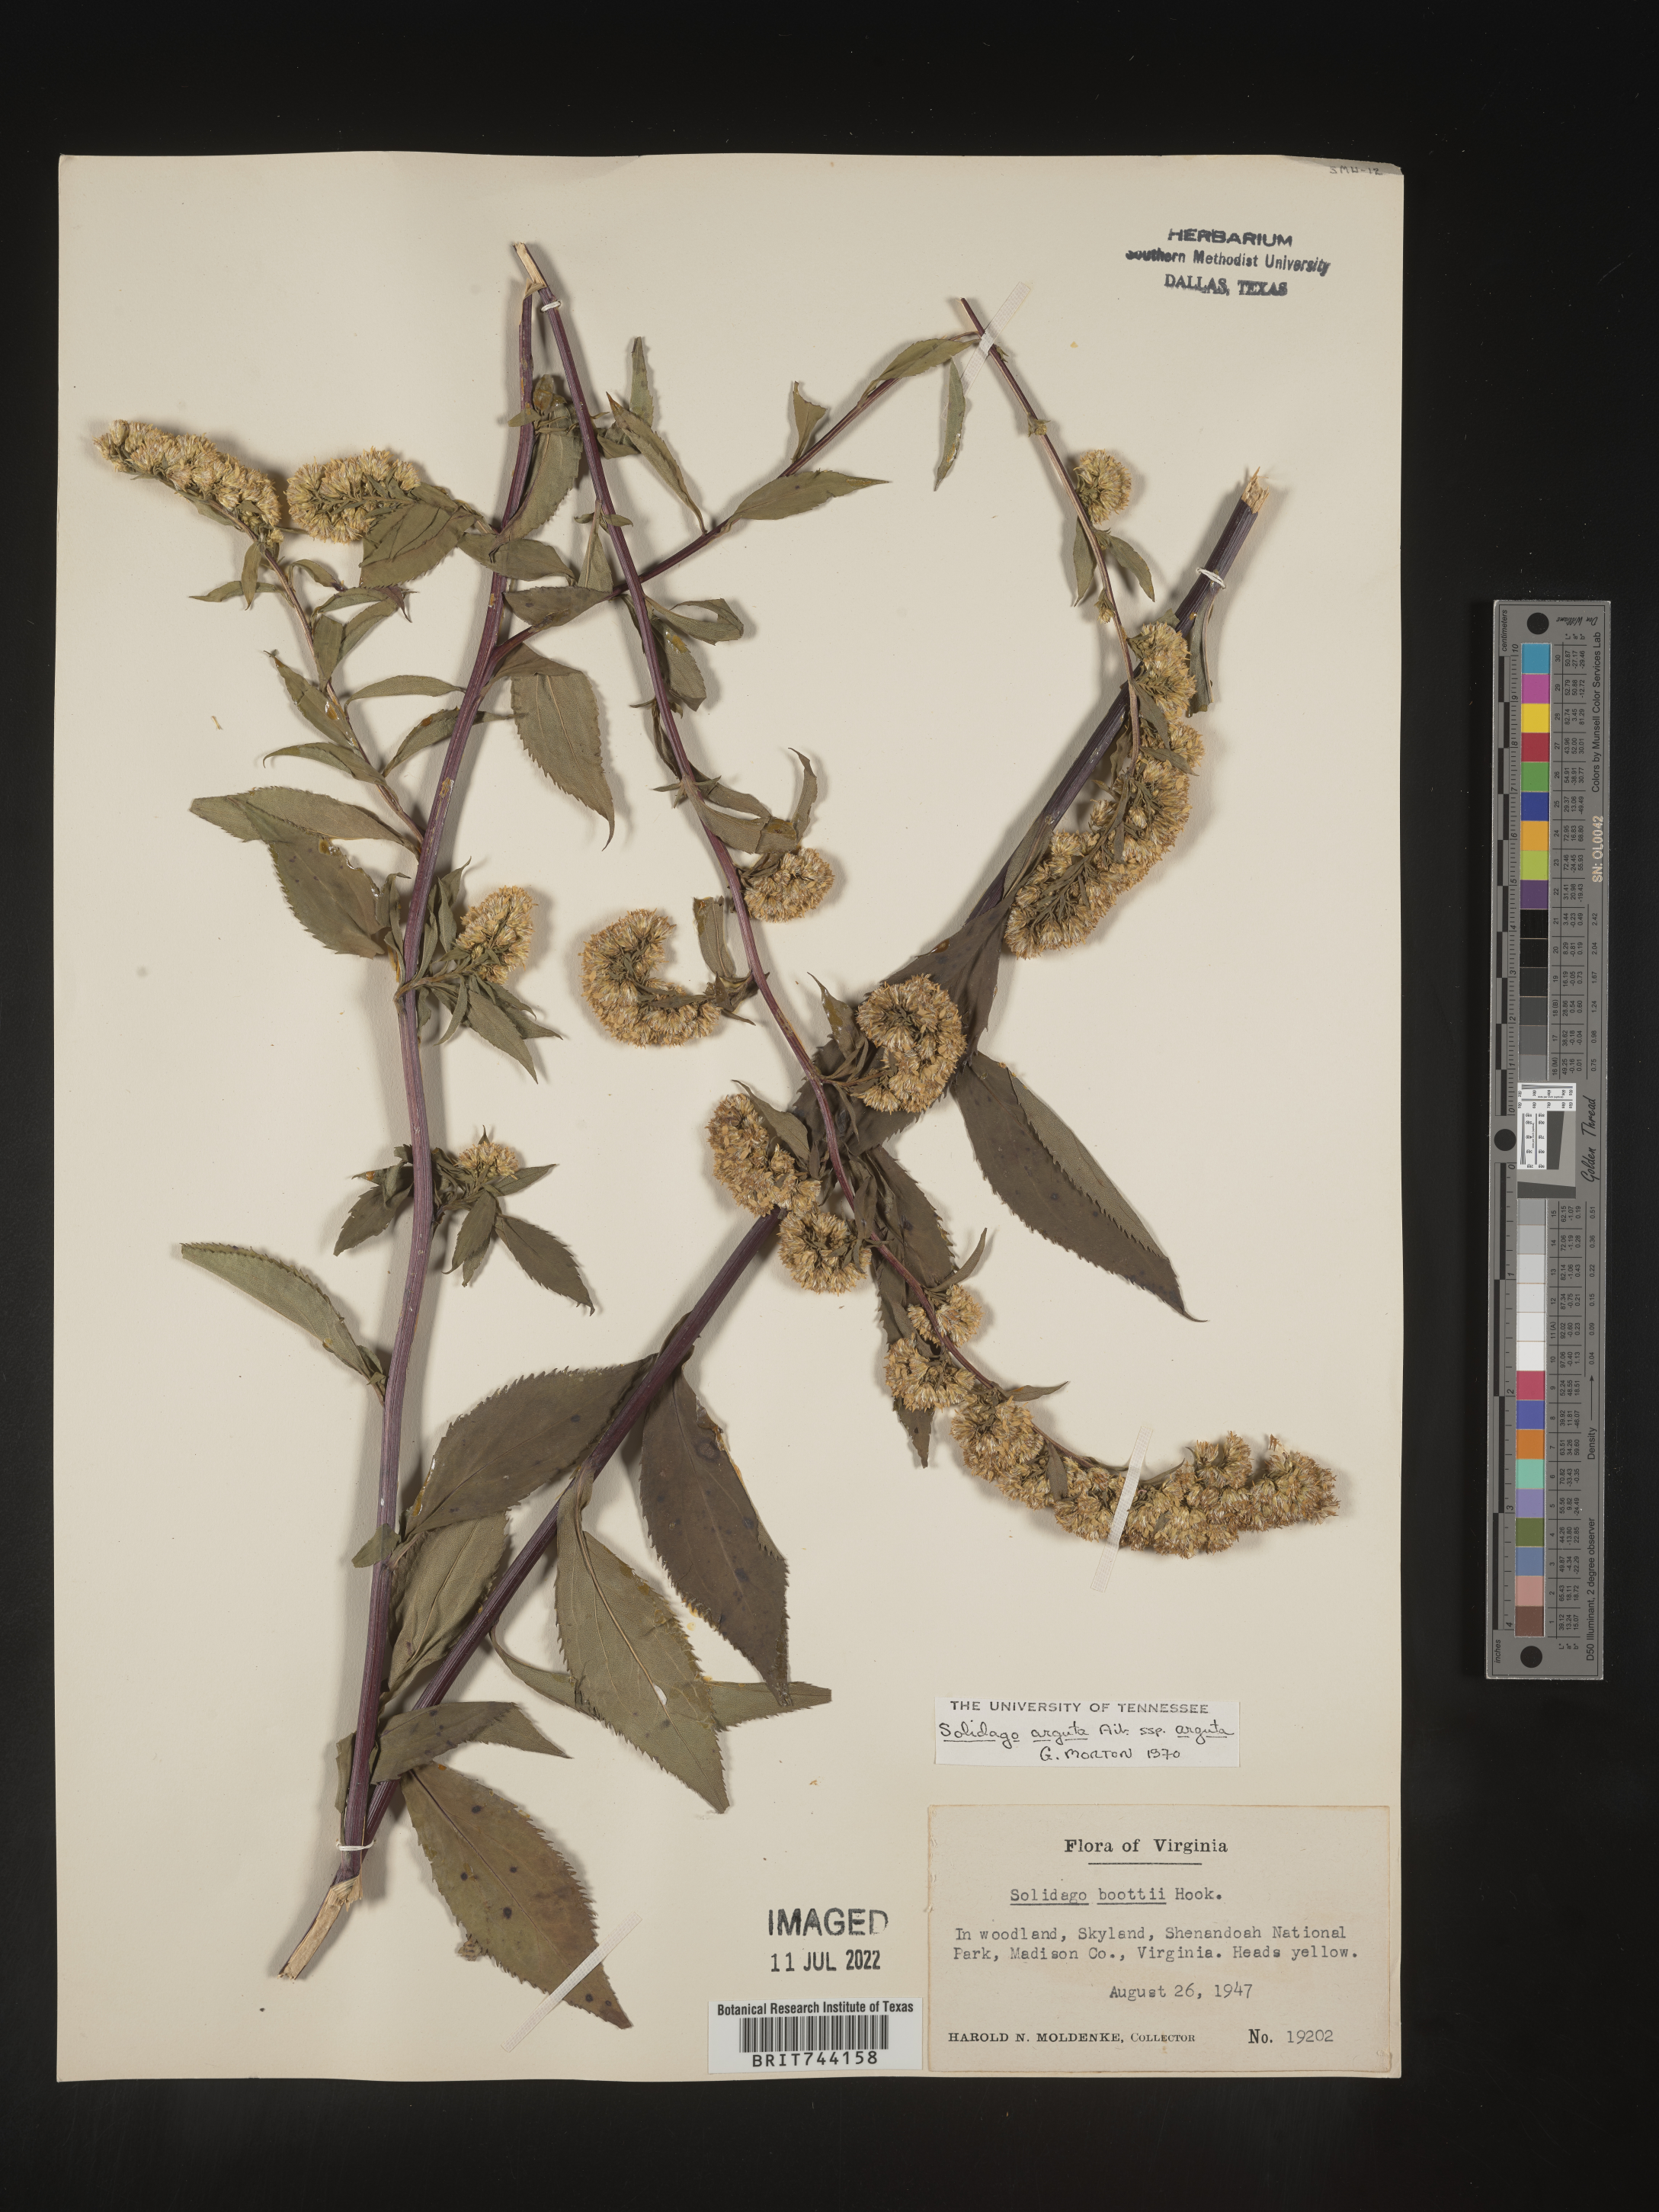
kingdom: Plantae
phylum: Tracheophyta
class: Magnoliopsida
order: Asterales
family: Asteraceae
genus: Solidago
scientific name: Solidago arguta
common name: Atlantic goldenrod
